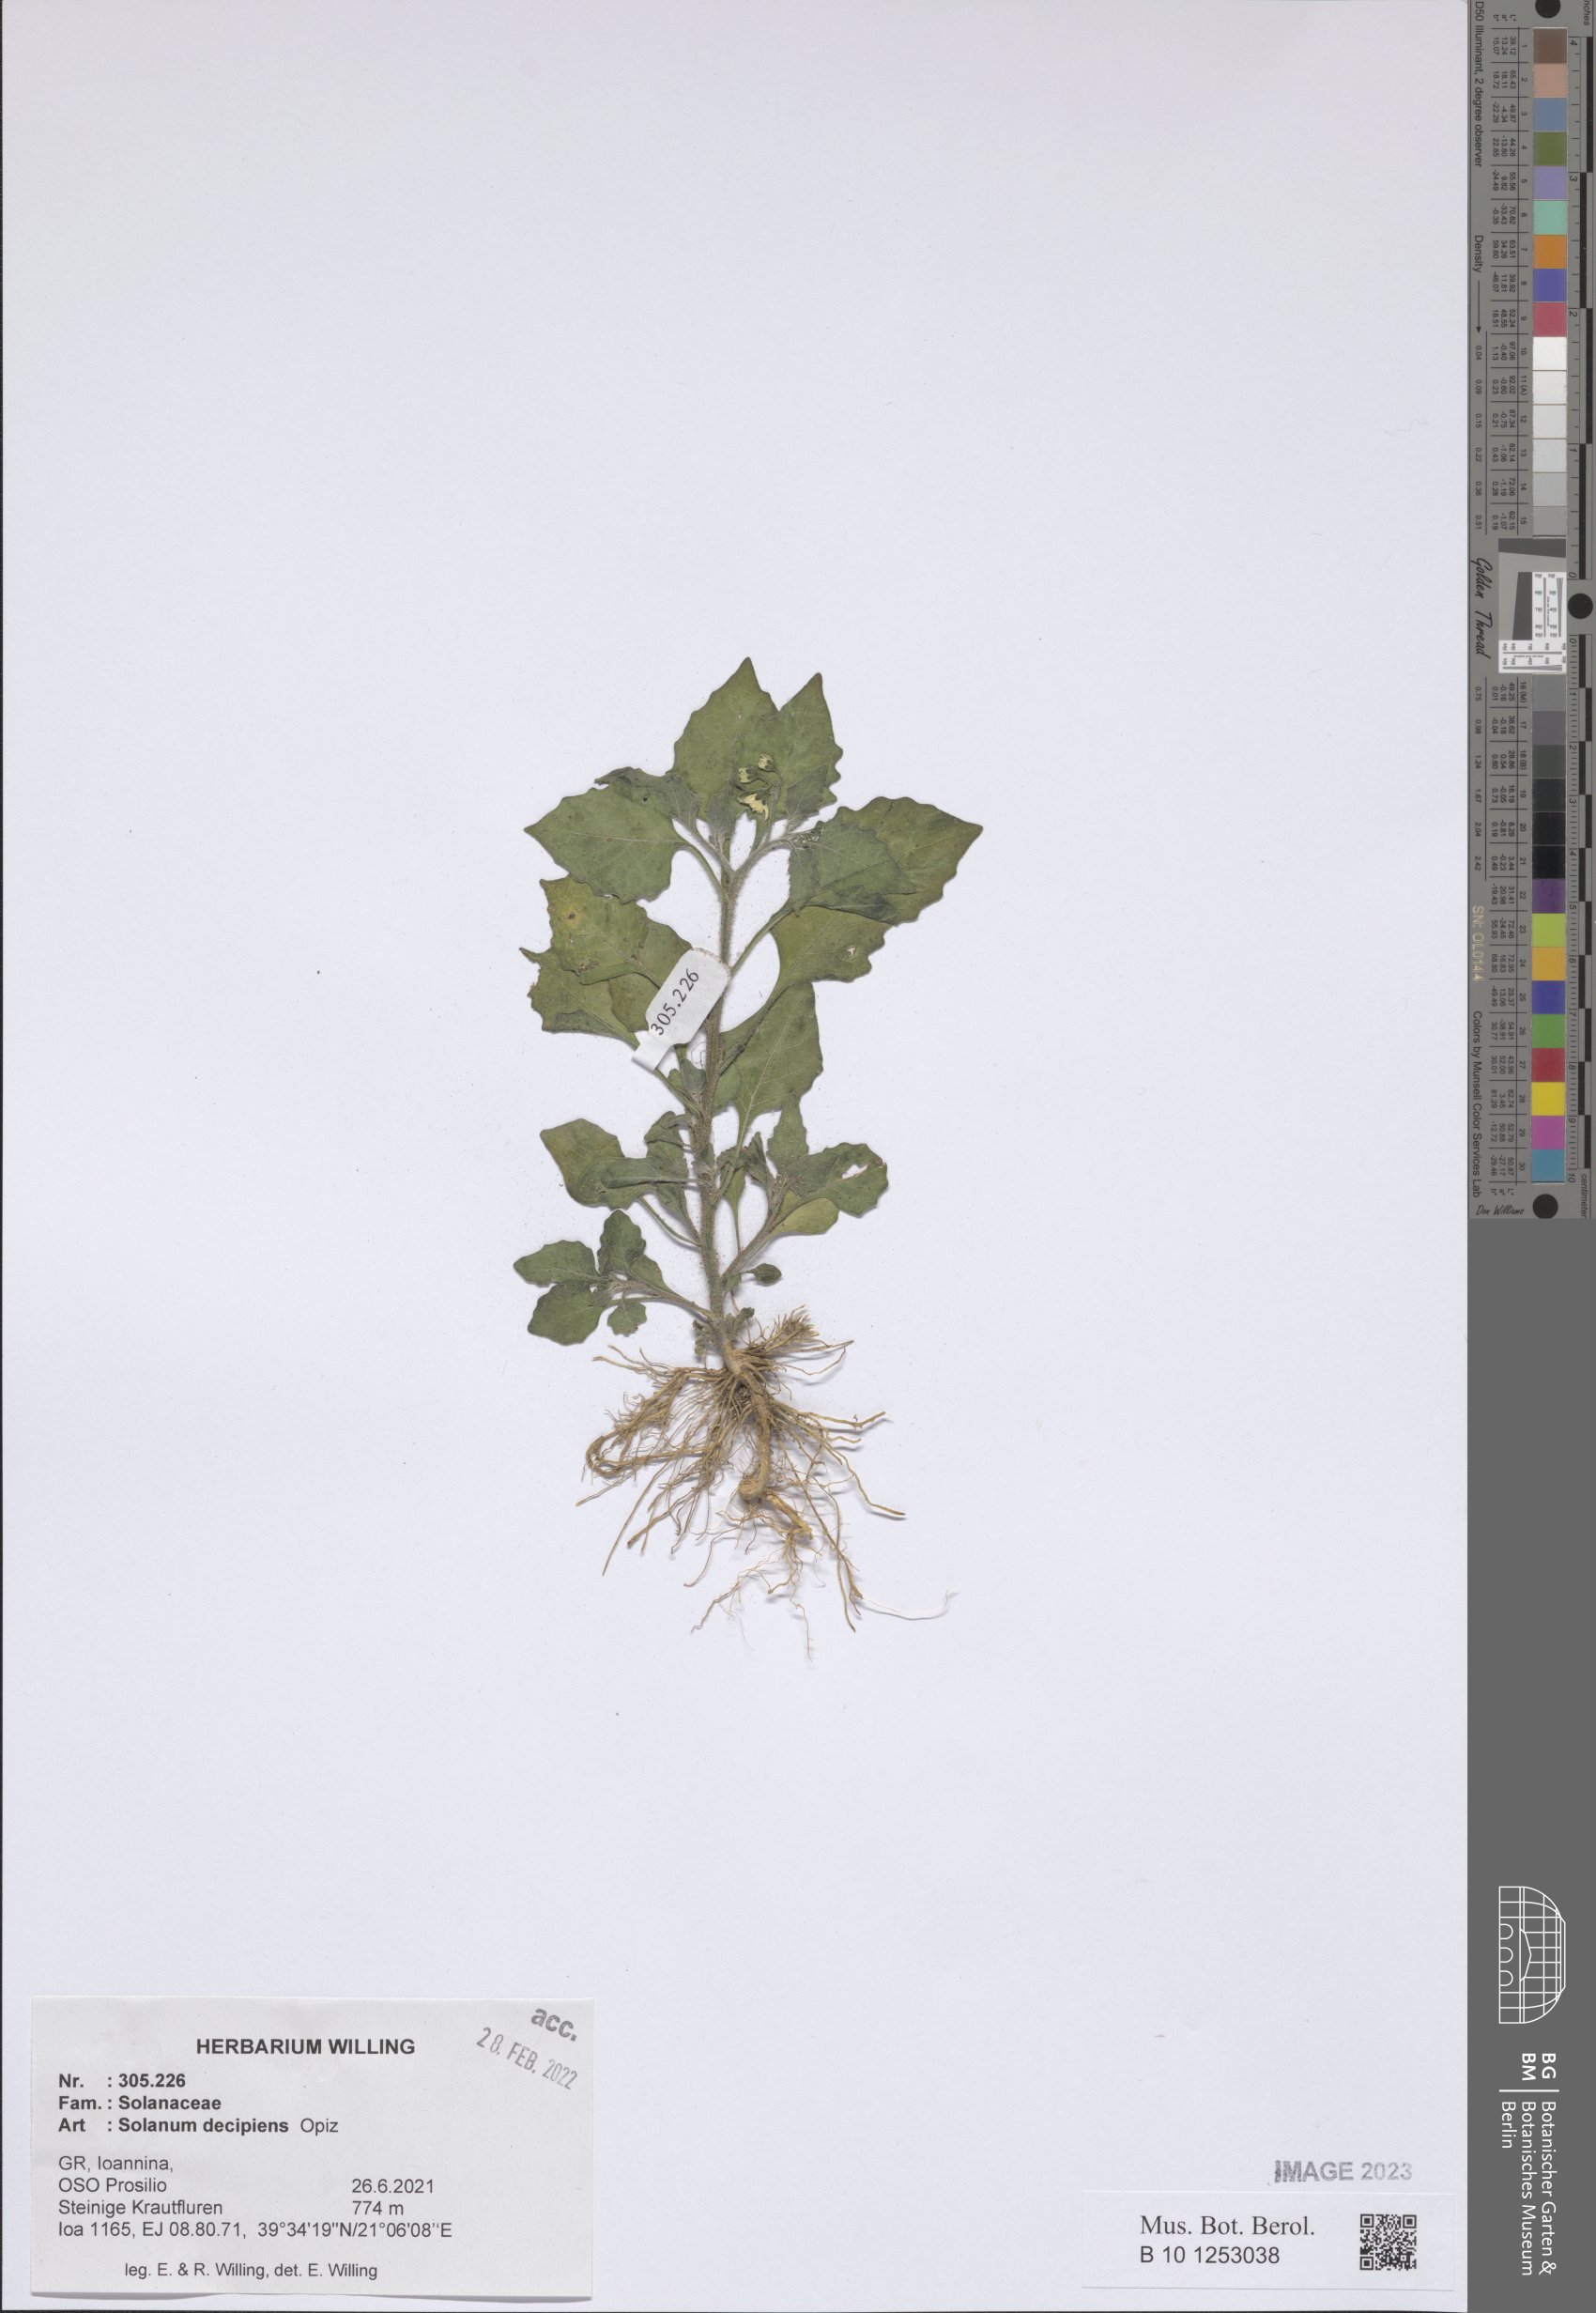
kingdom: Plantae
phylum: Tracheophyta
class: Magnoliopsida
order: Solanales
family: Solanaceae
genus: Solanum
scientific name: Solanum decipiens
